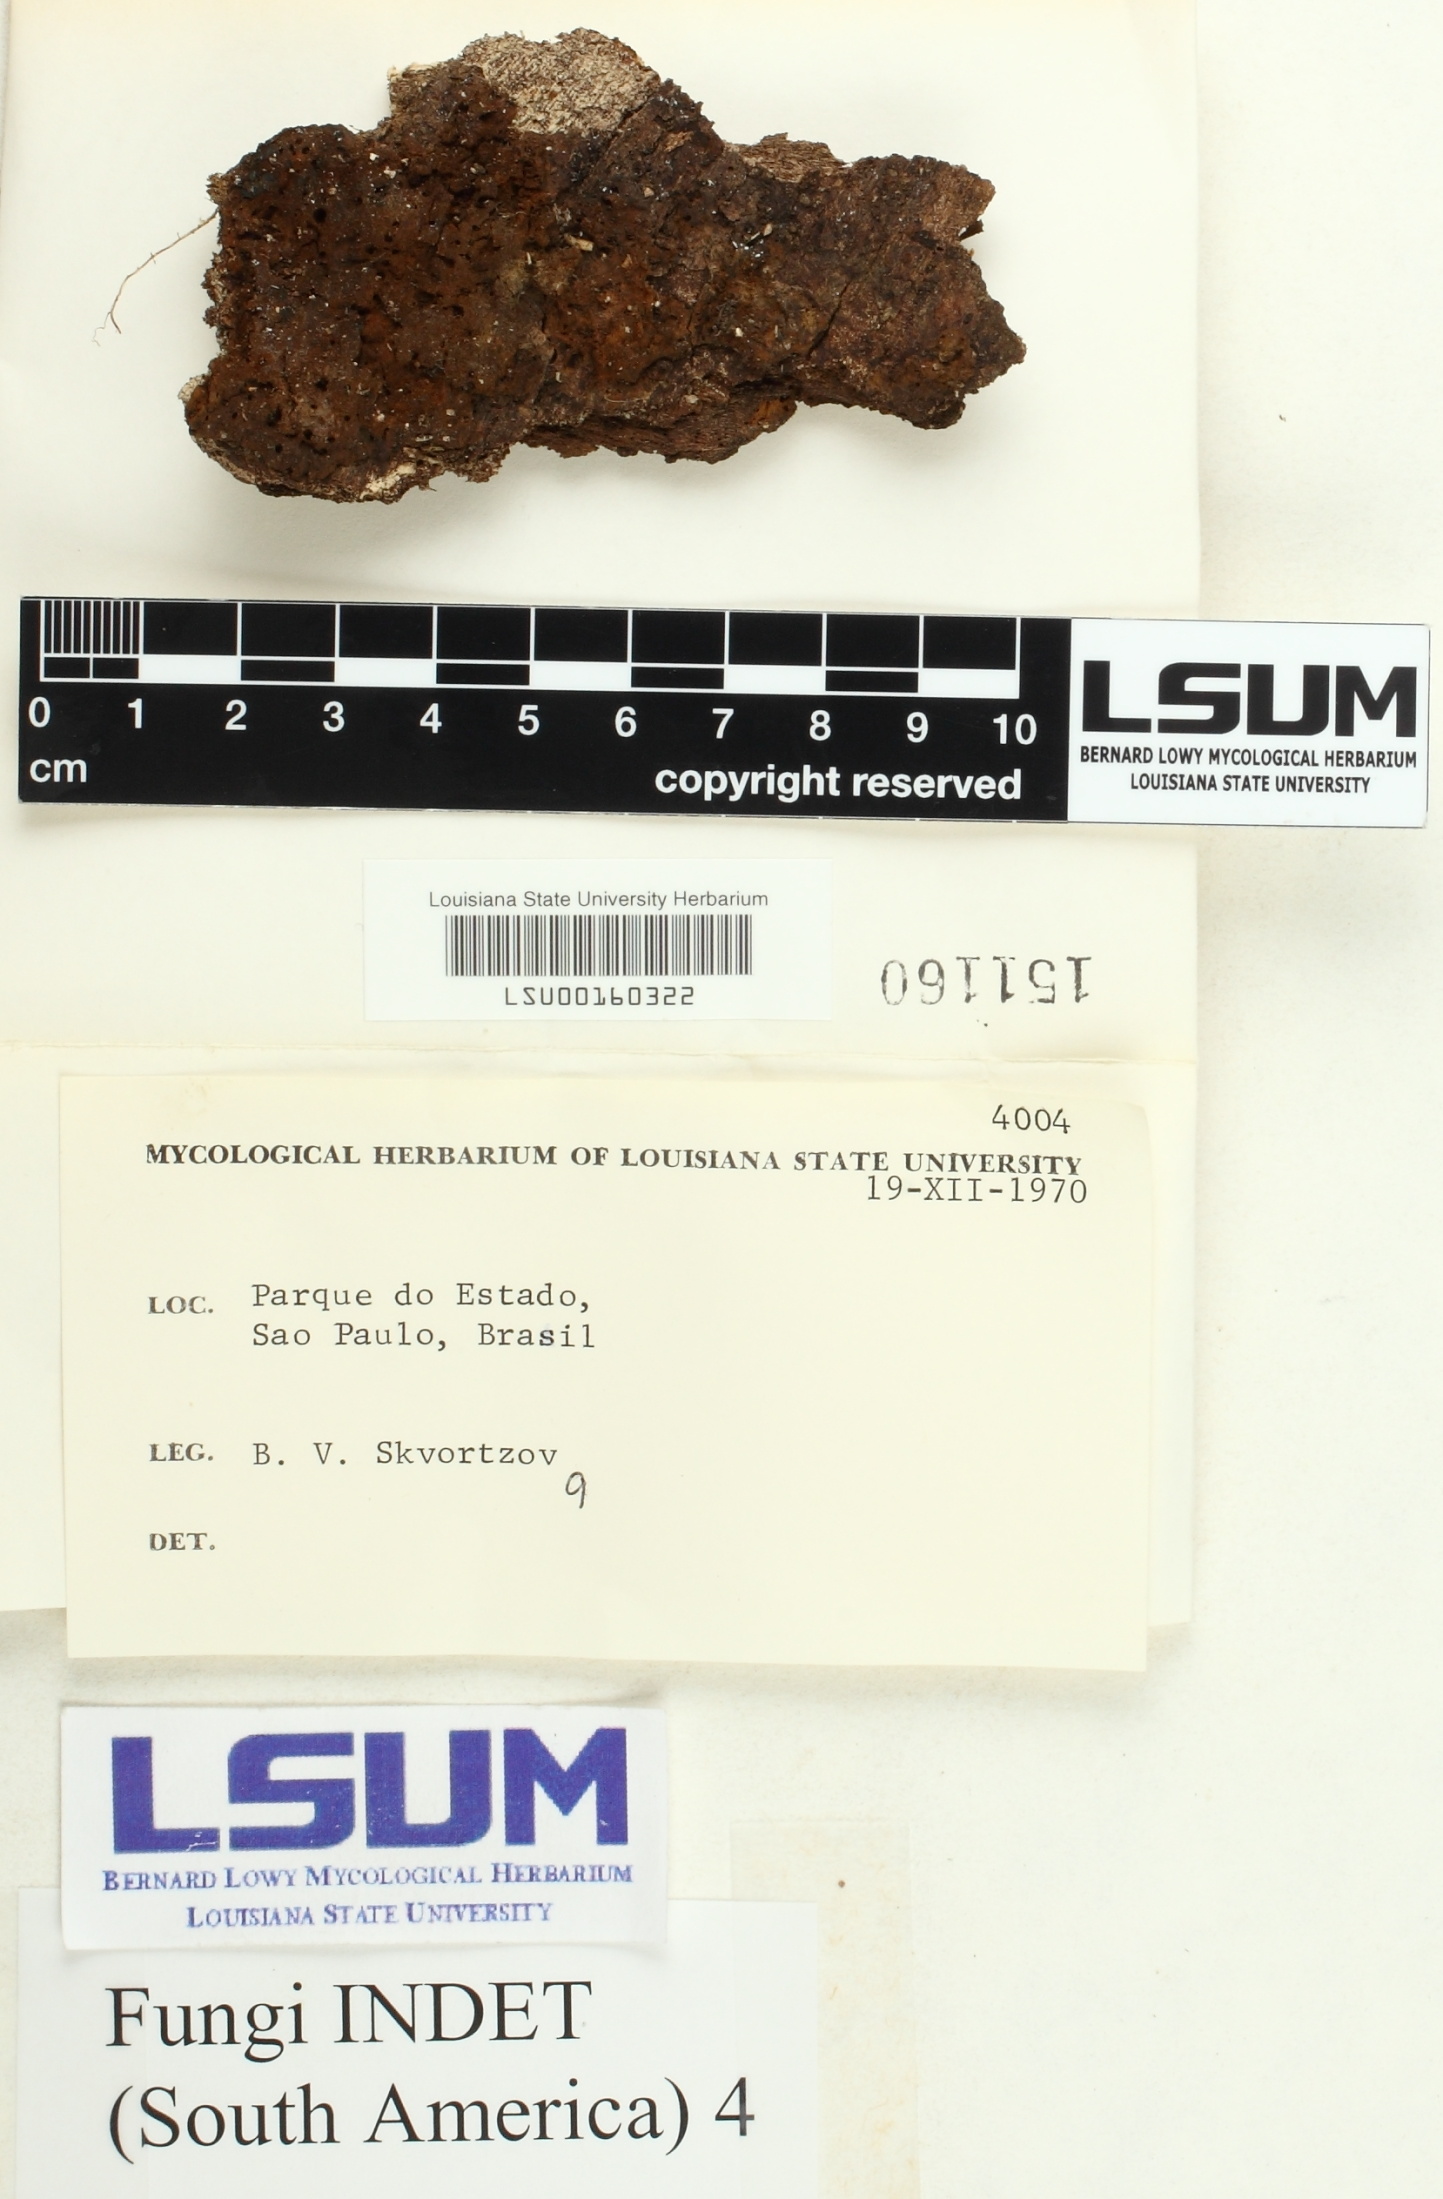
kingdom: Fungi
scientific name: Fungi
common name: Fungi
